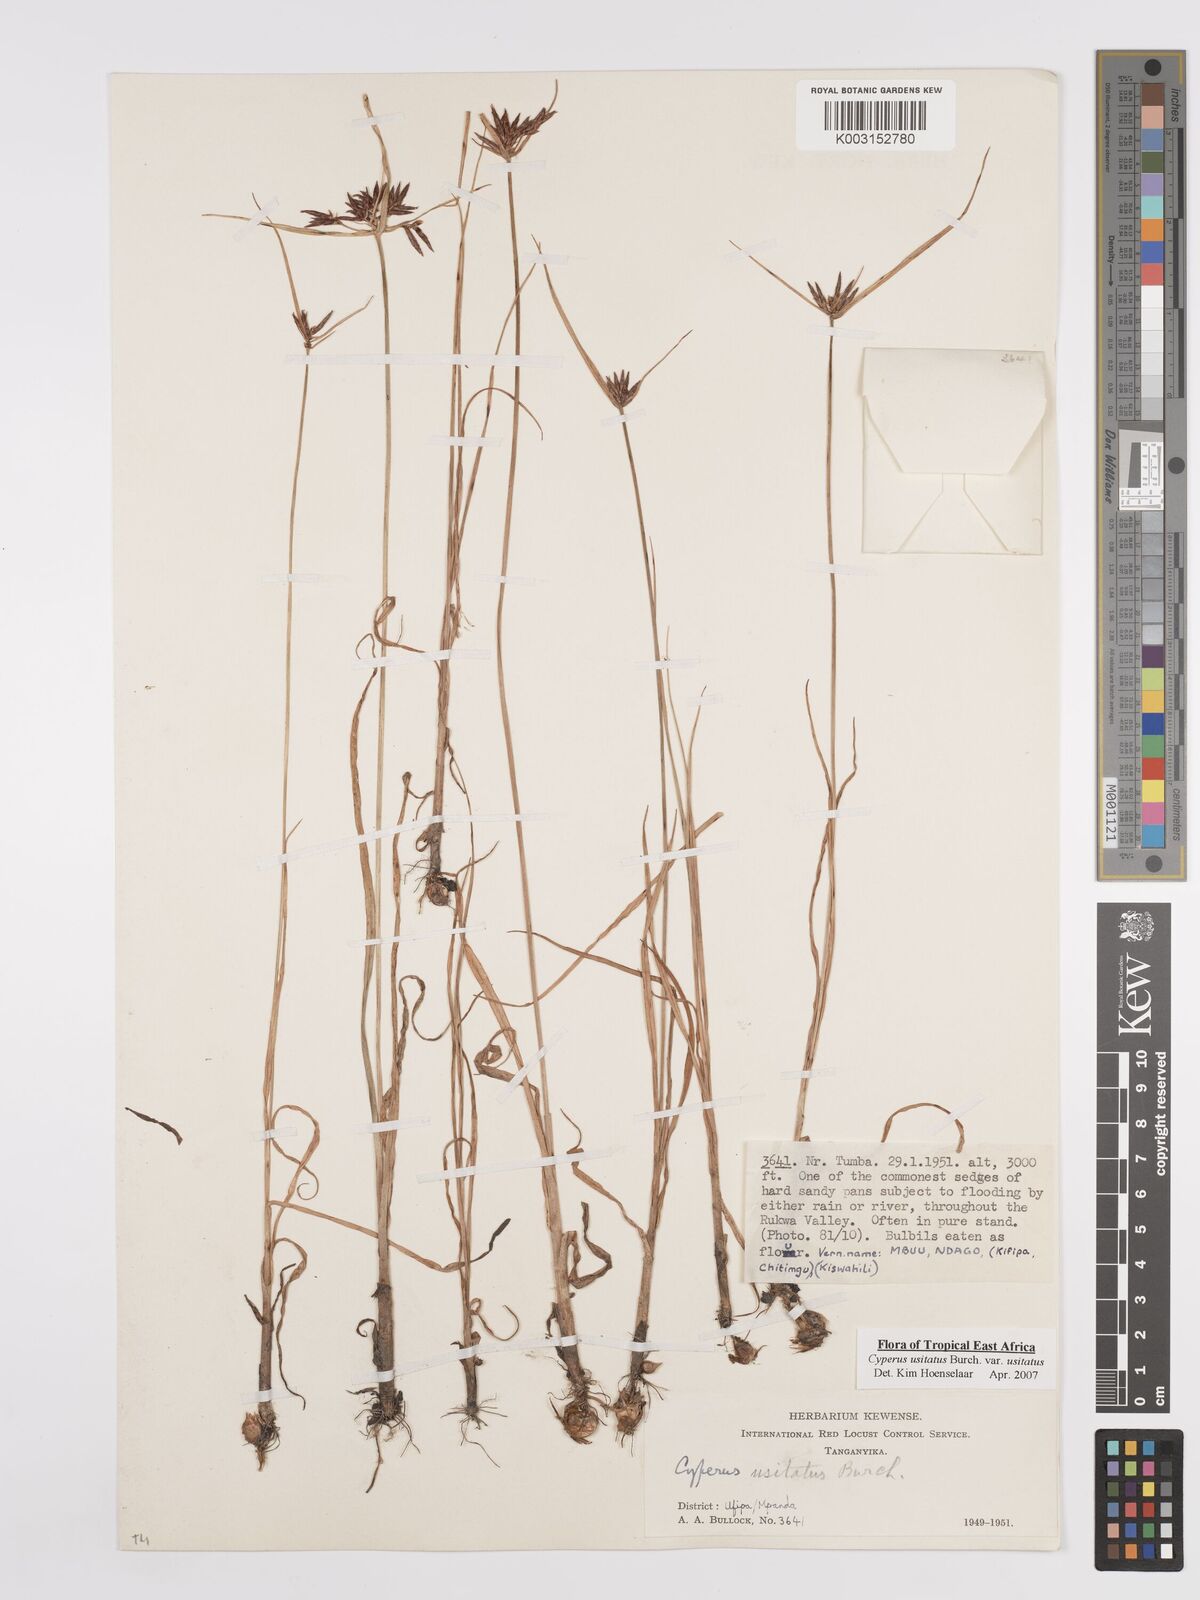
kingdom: Plantae
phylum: Tracheophyta
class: Liliopsida
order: Poales
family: Cyperaceae
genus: Cyperus
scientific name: Cyperus usitatus
